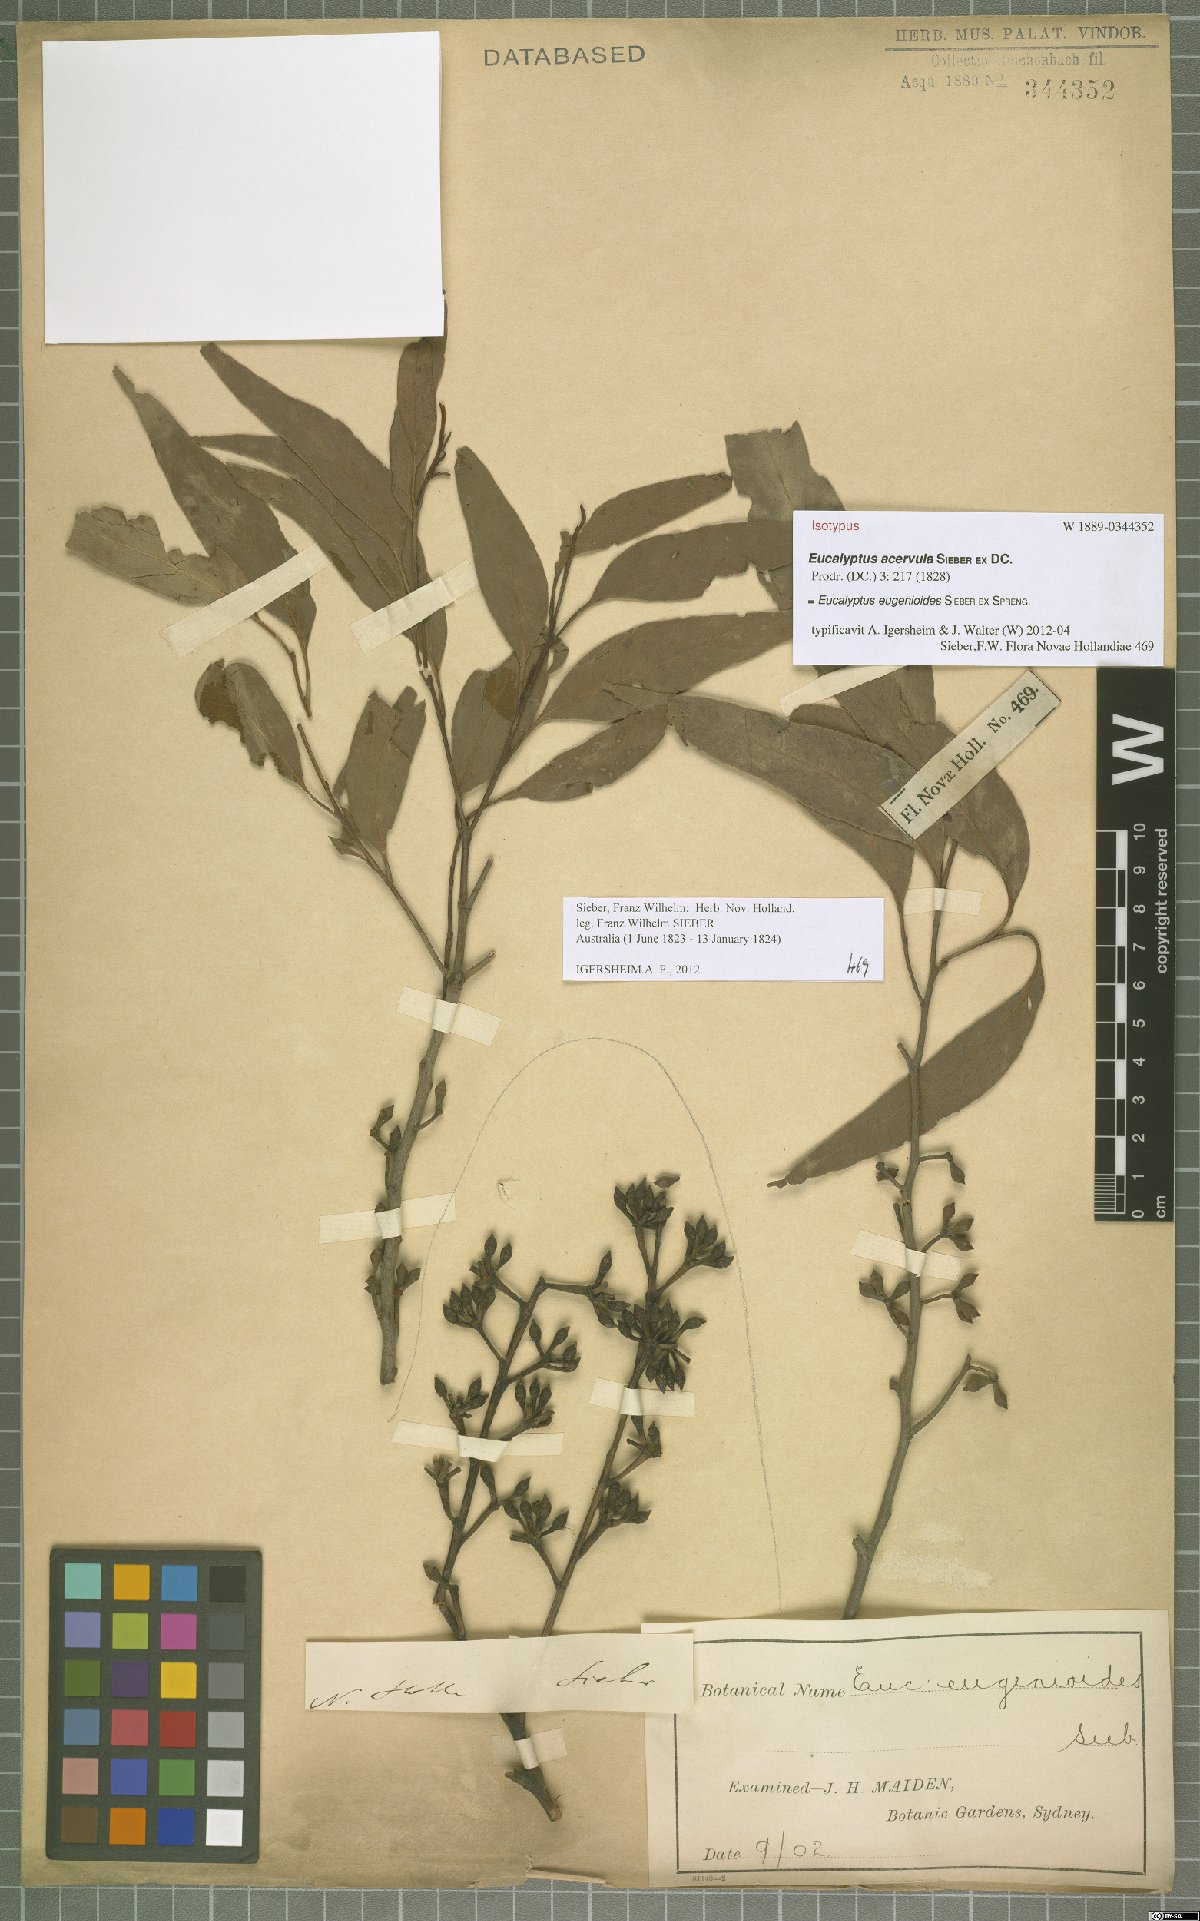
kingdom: Plantae
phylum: Tracheophyta
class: Magnoliopsida
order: Myrtales
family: Myrtaceae
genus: Eucalyptus
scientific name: Eucalyptus eugenioides
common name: Narrow-leaved-stringybark
